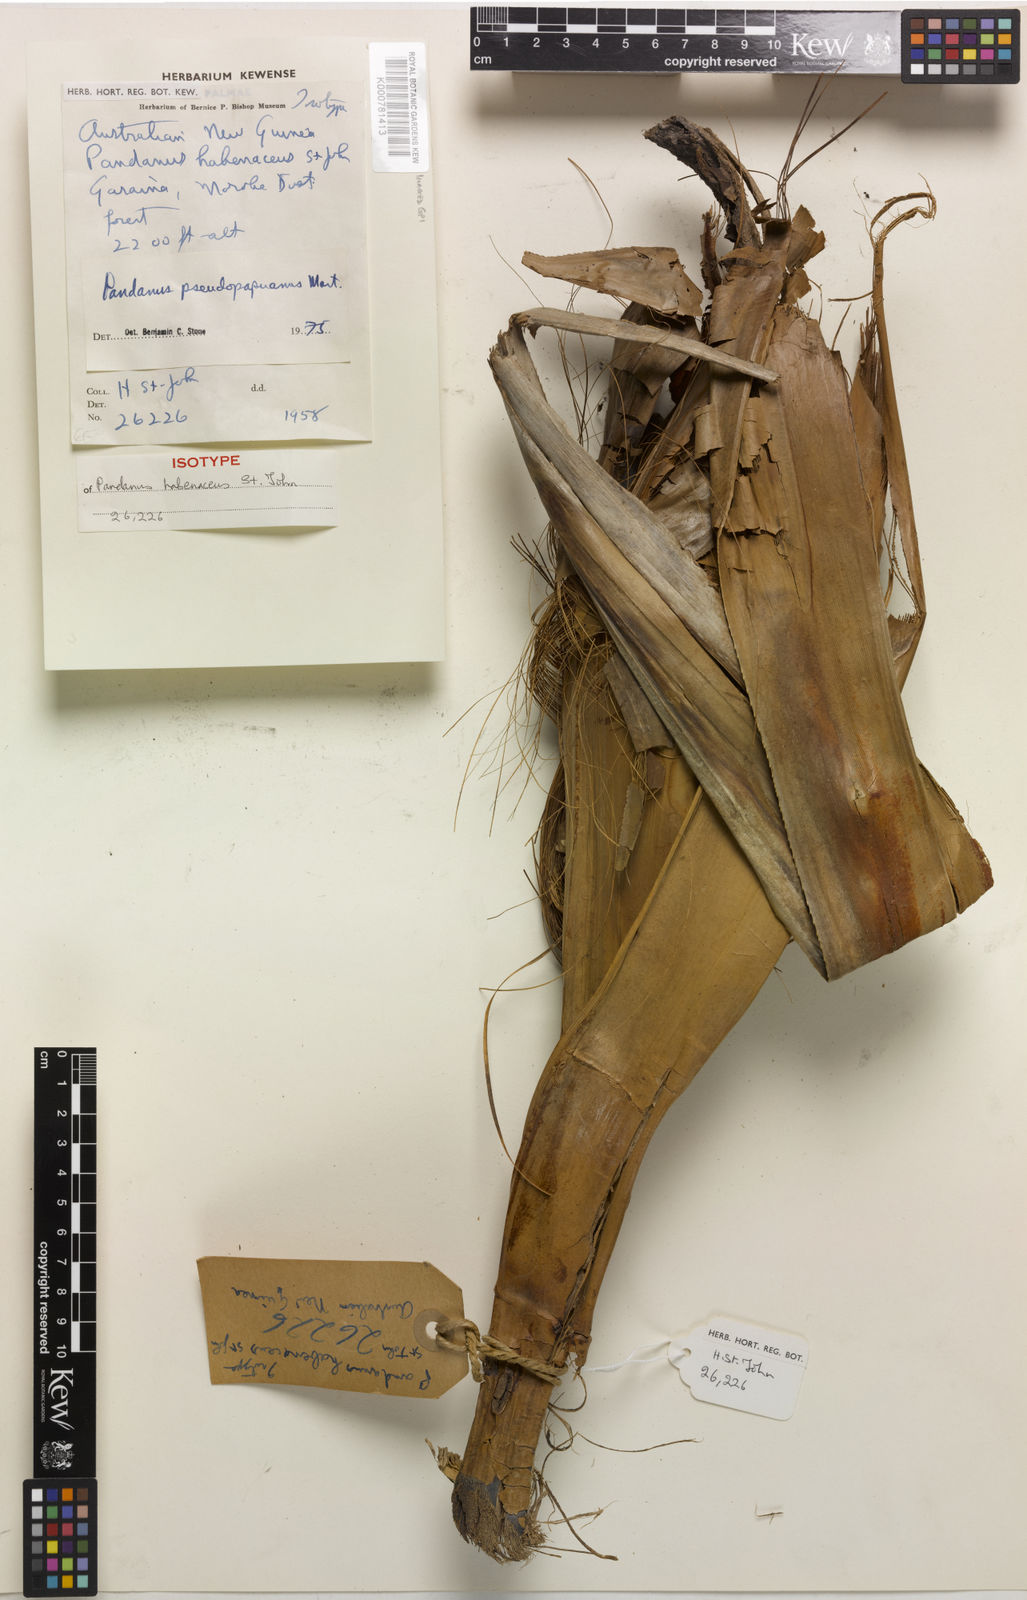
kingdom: Plantae
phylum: Tracheophyta
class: Liliopsida
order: Pandanales
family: Pandanaceae
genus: Pandanus
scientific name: Pandanus papuanus
